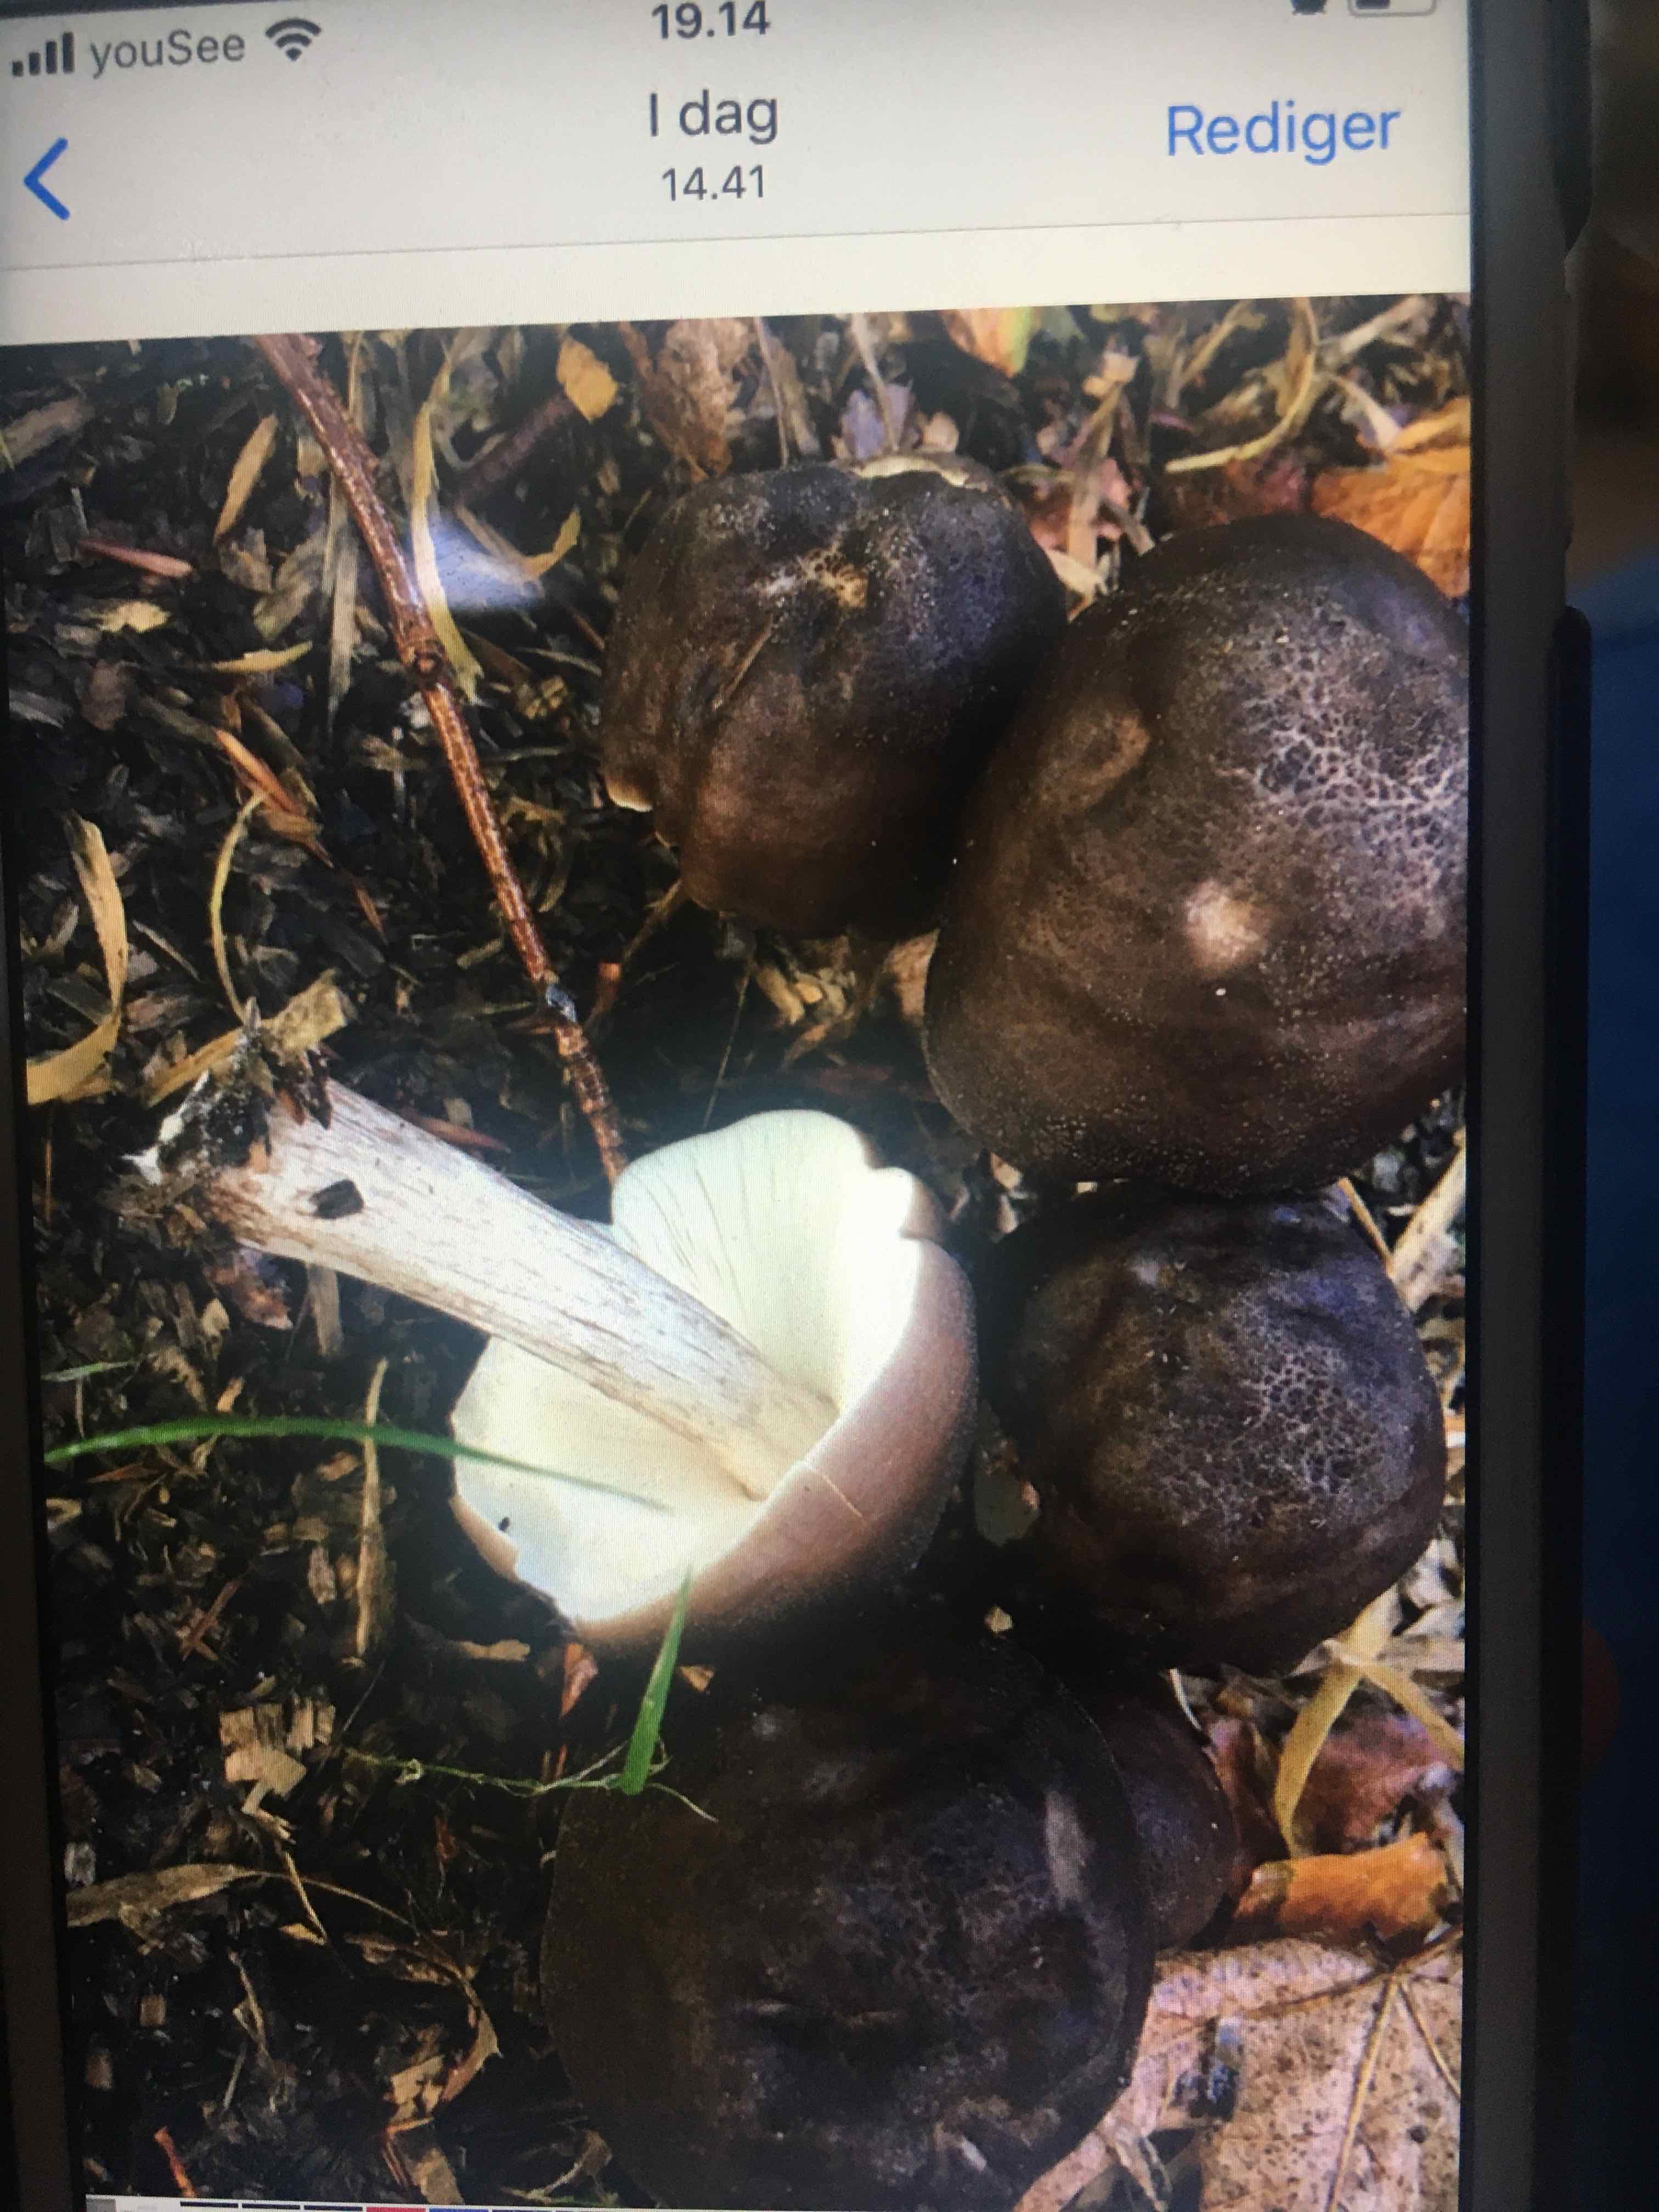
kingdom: Fungi
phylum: Basidiomycota
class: Agaricomycetes
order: Agaricales
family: Pluteaceae
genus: Pluteus
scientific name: Pluteus cervinus
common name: sodfarvet skærmhat
